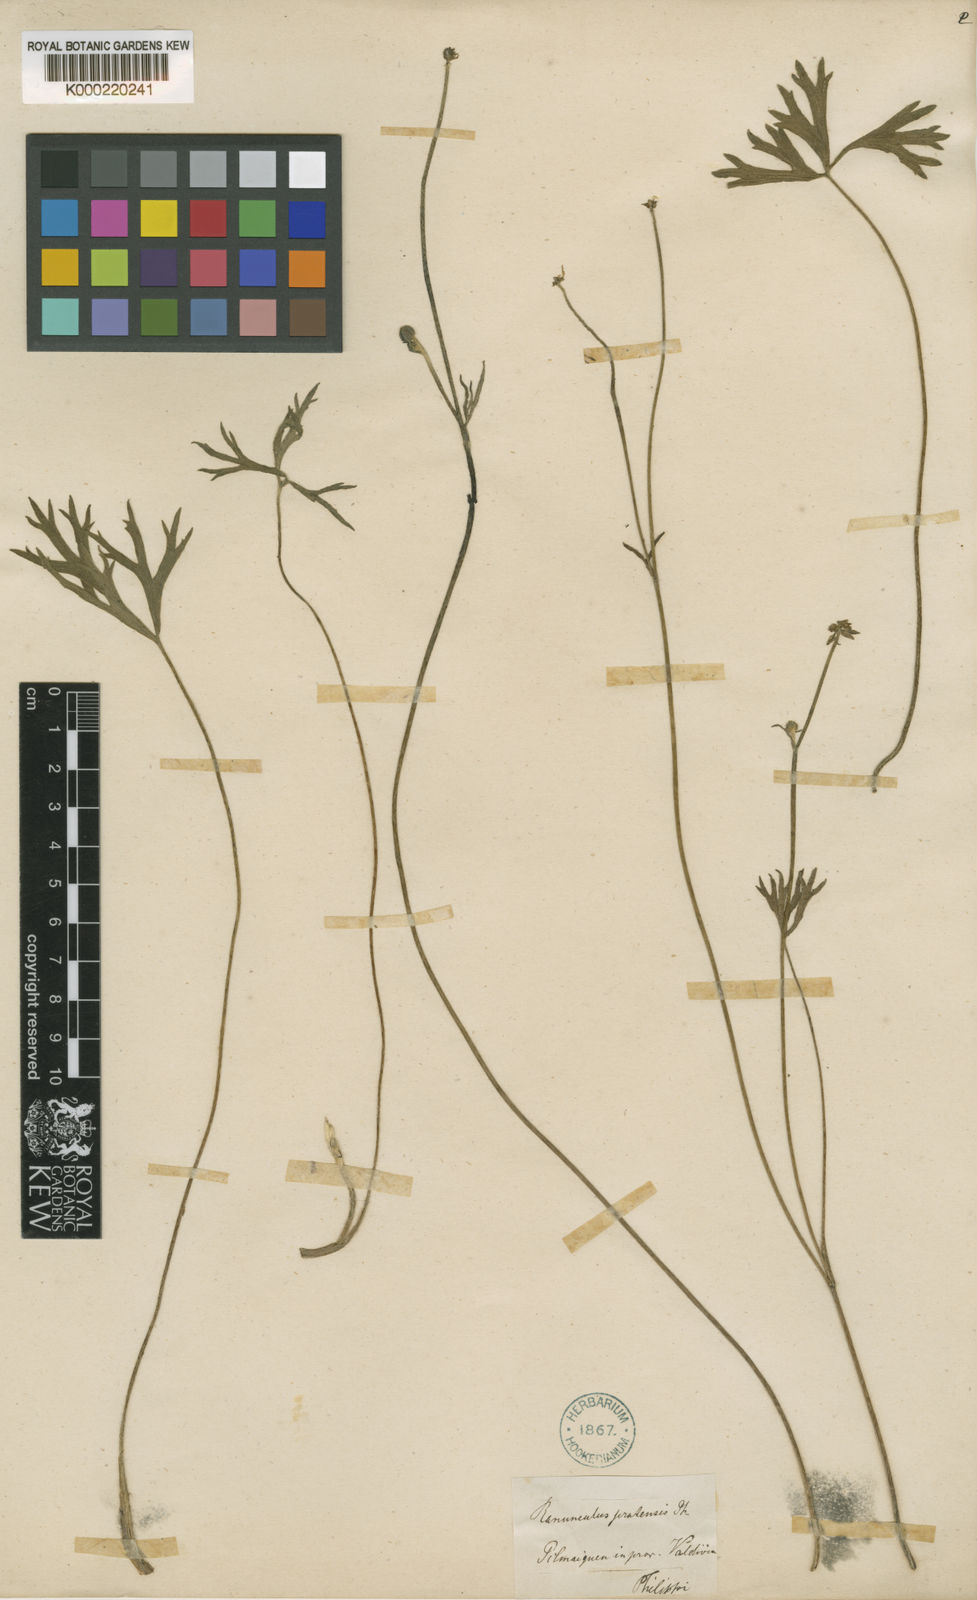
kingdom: Plantae
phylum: Tracheophyta
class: Magnoliopsida
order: Ranunculales
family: Ranunculaceae
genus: Ranunculus
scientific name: Ranunculus
